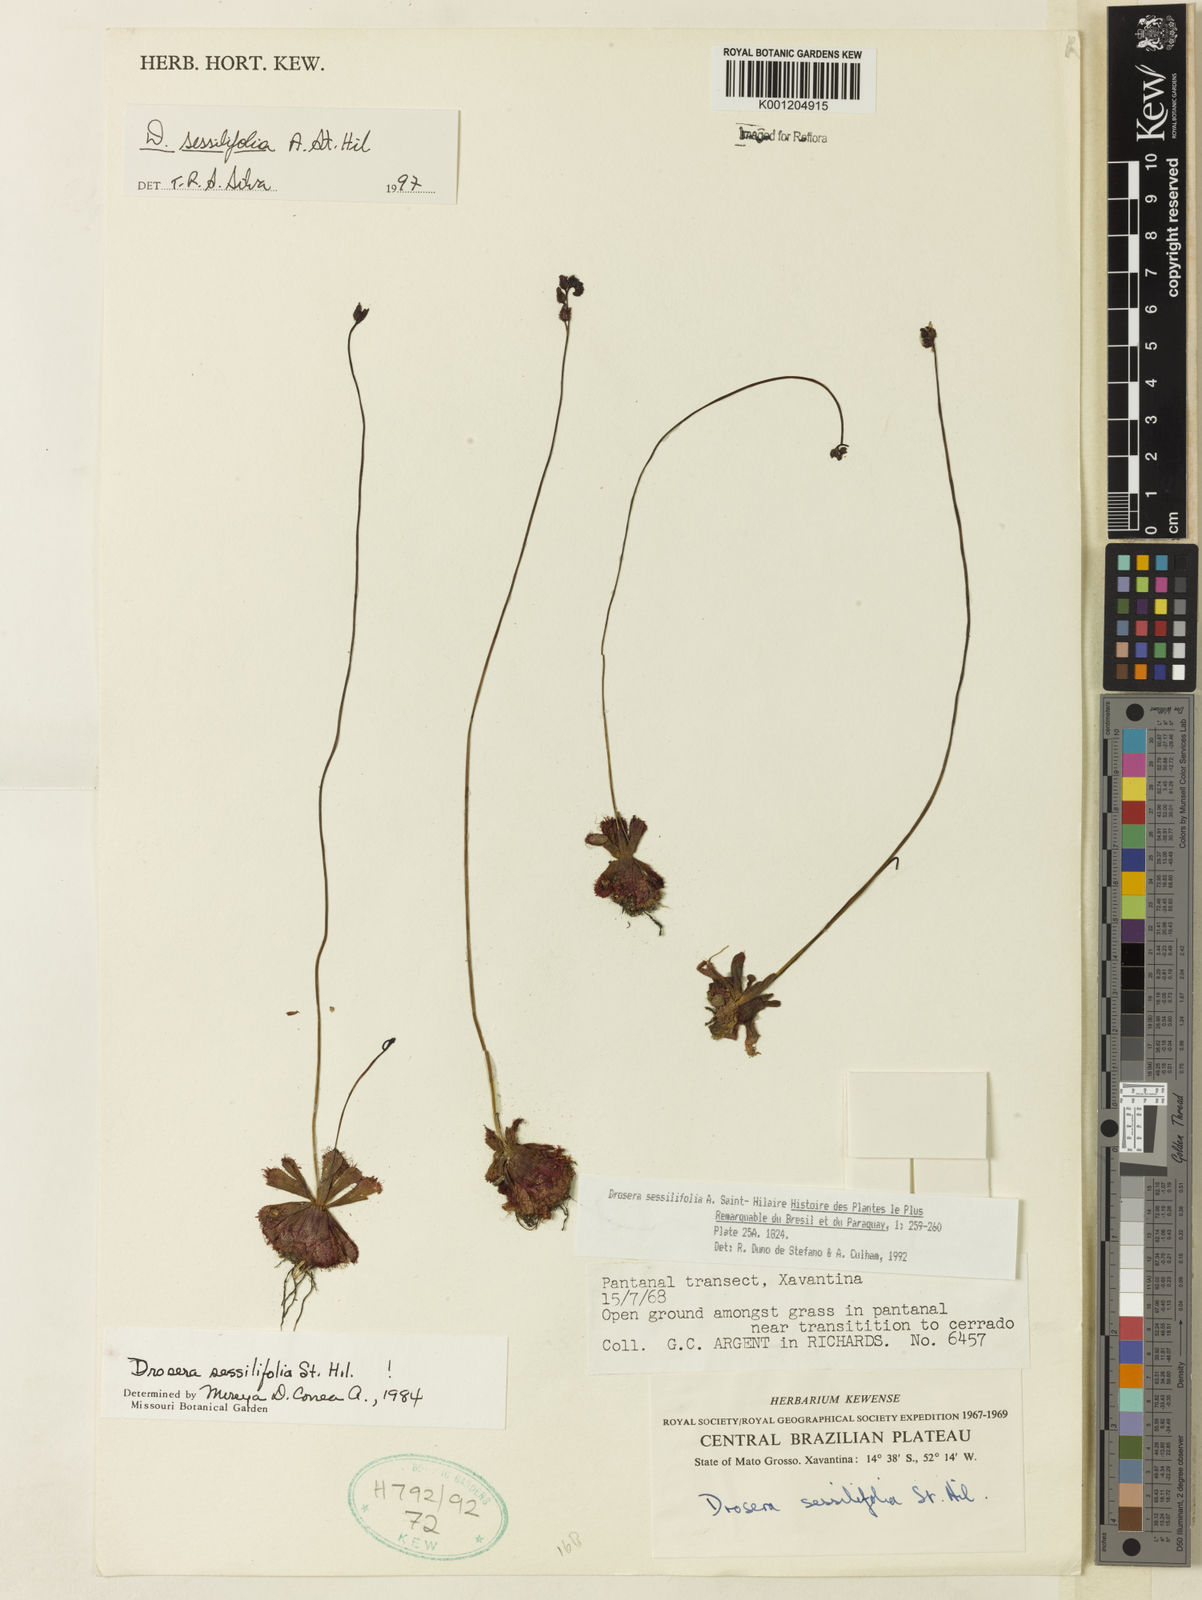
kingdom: Plantae
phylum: Tracheophyta
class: Magnoliopsida
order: Caryophyllales
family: Droseraceae
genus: Drosera
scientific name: Drosera sessilifolia
